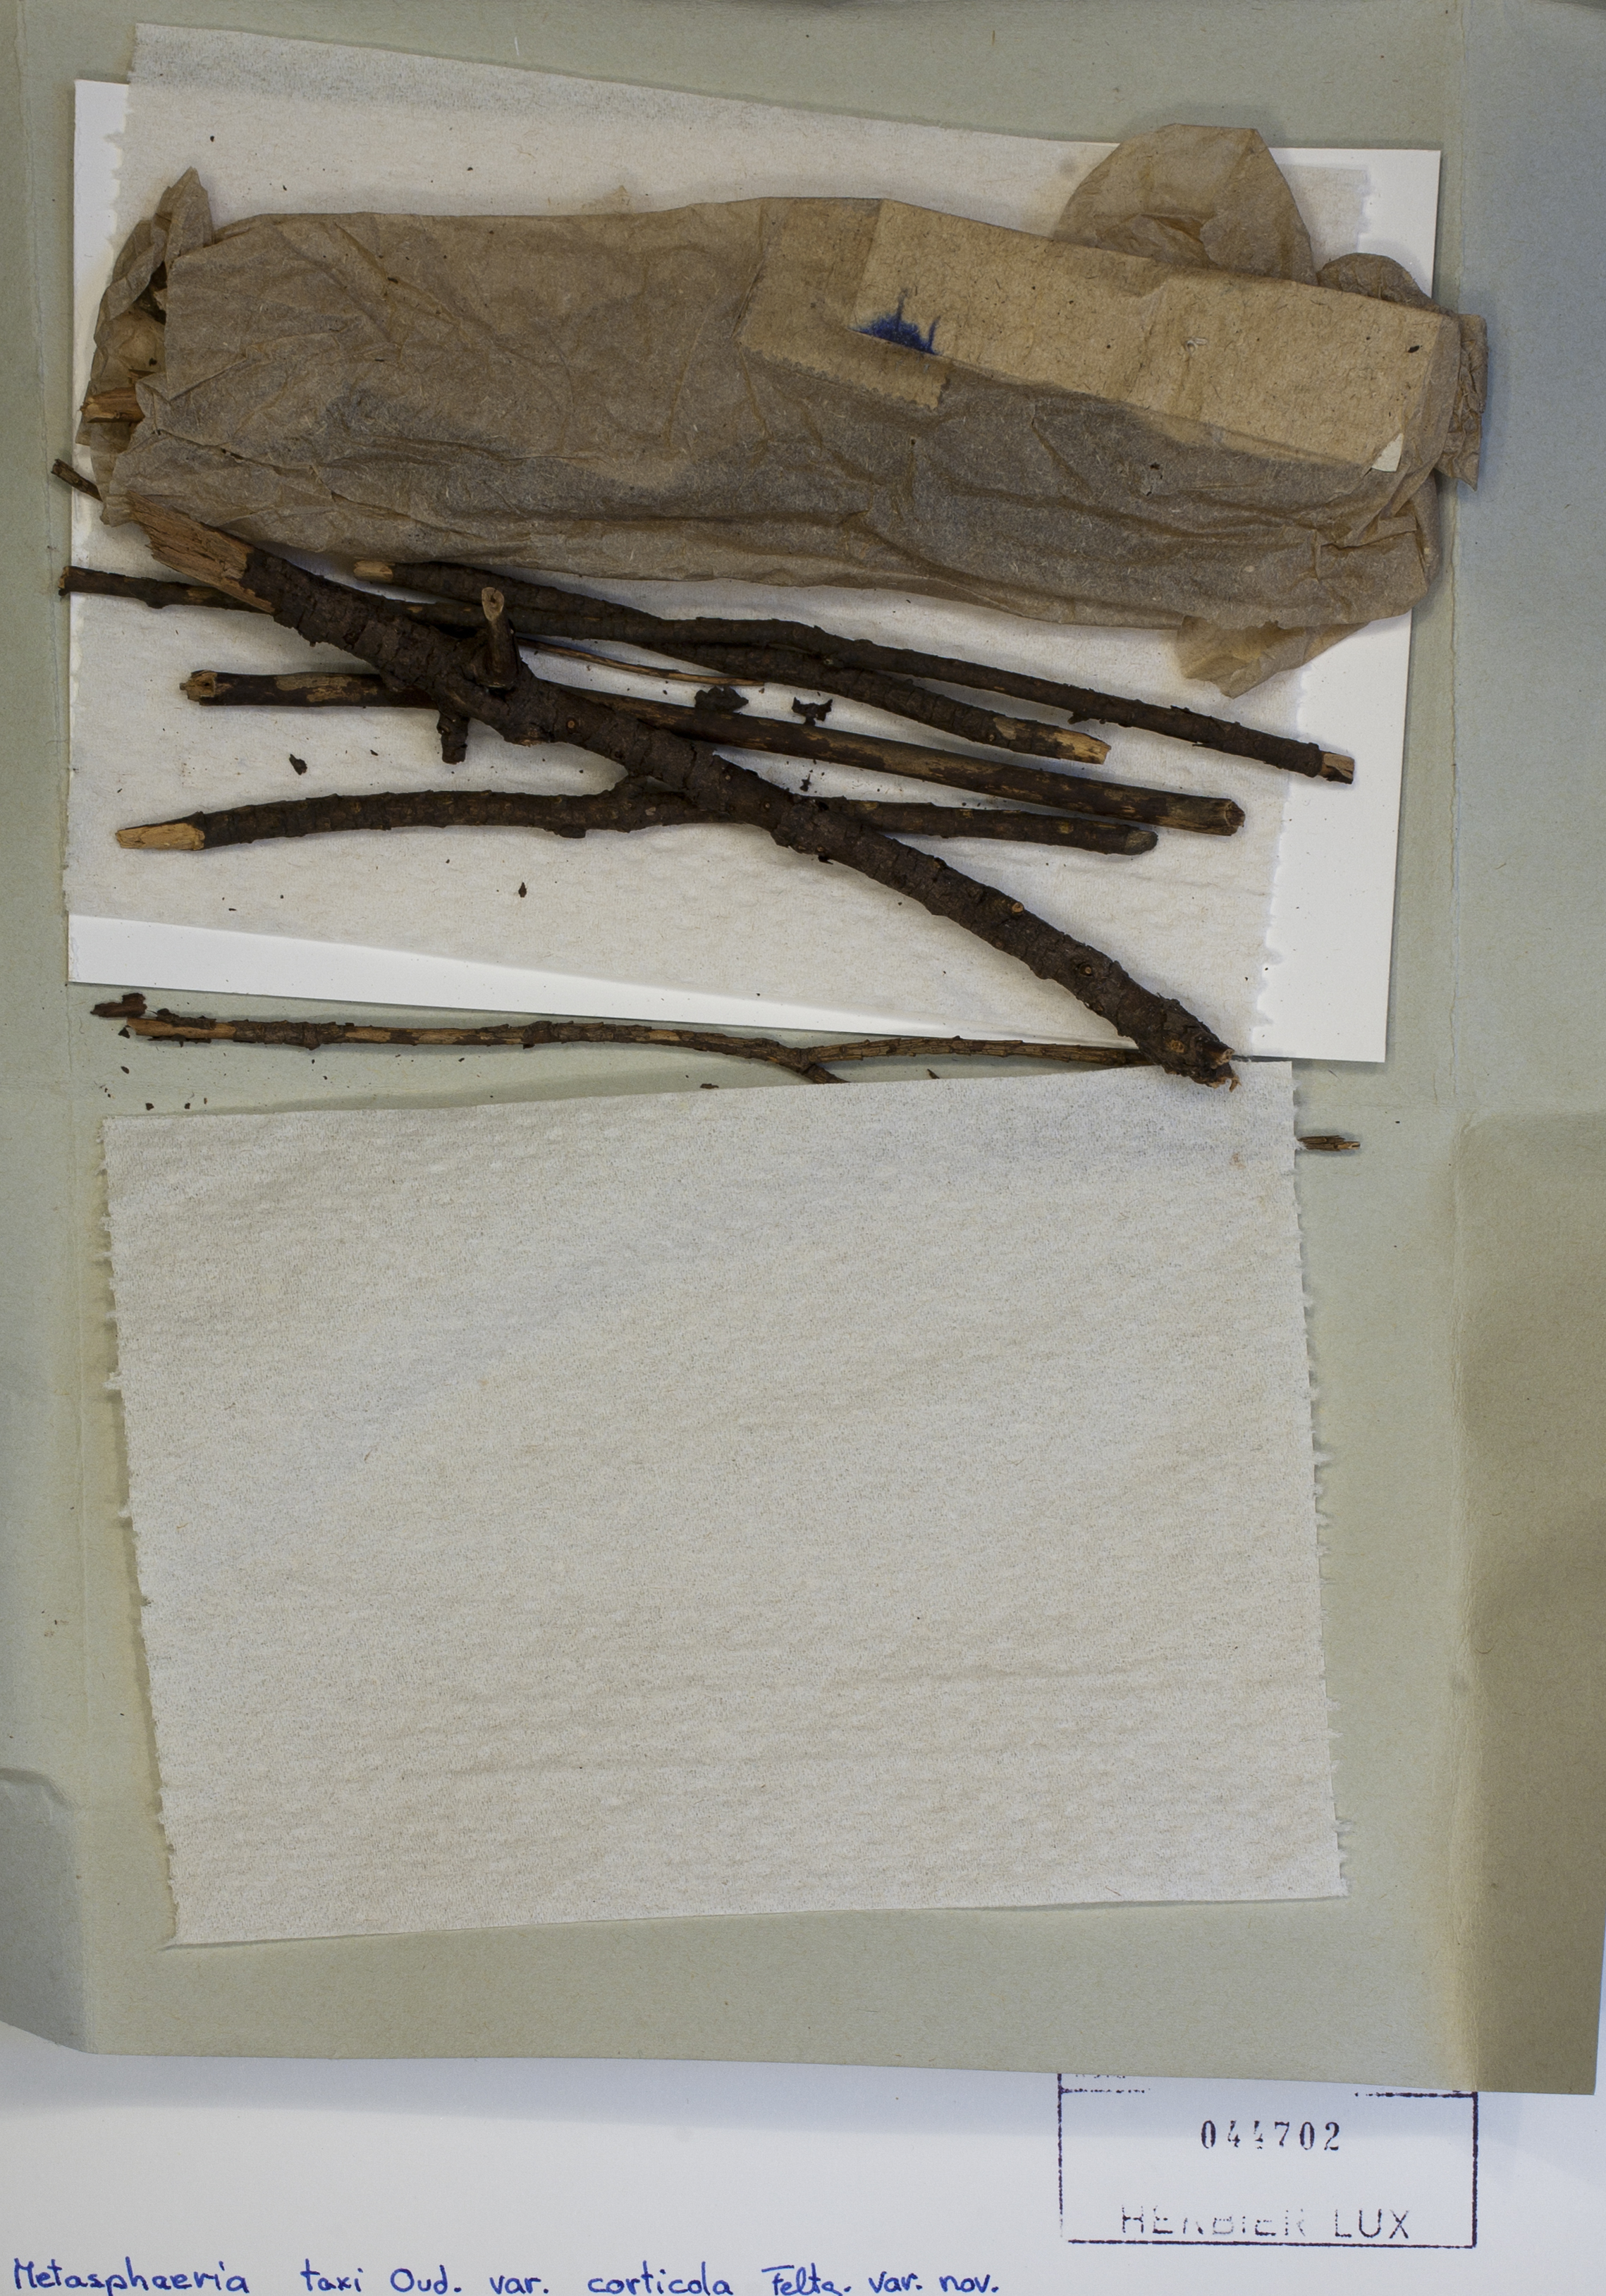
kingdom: Fungi
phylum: Ascomycota
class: Dothideomycetes
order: Botryosphaeriales
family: Botryosphaeriaceae
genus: Dothiora
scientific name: Dothiora taxicola
